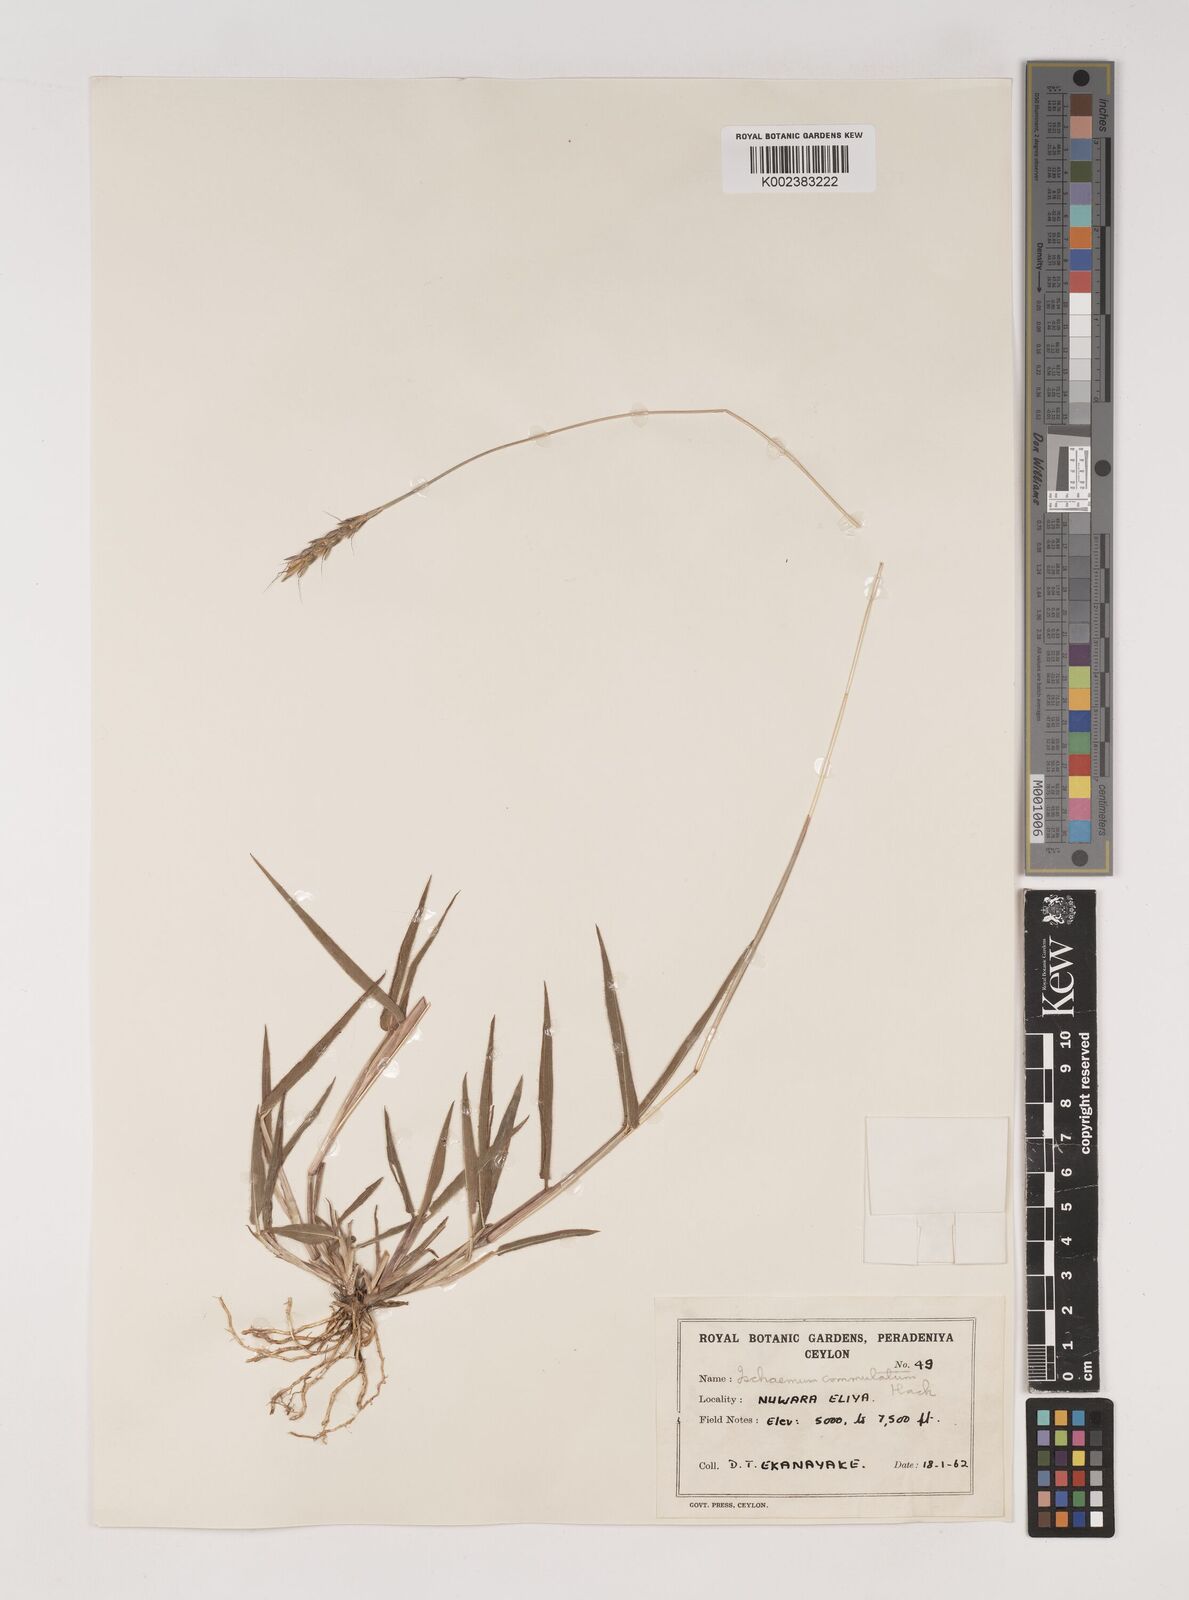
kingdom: Plantae
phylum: Tracheophyta
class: Liliopsida
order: Poales
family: Poaceae
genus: Ischaemum
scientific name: Ischaemum commutatum
